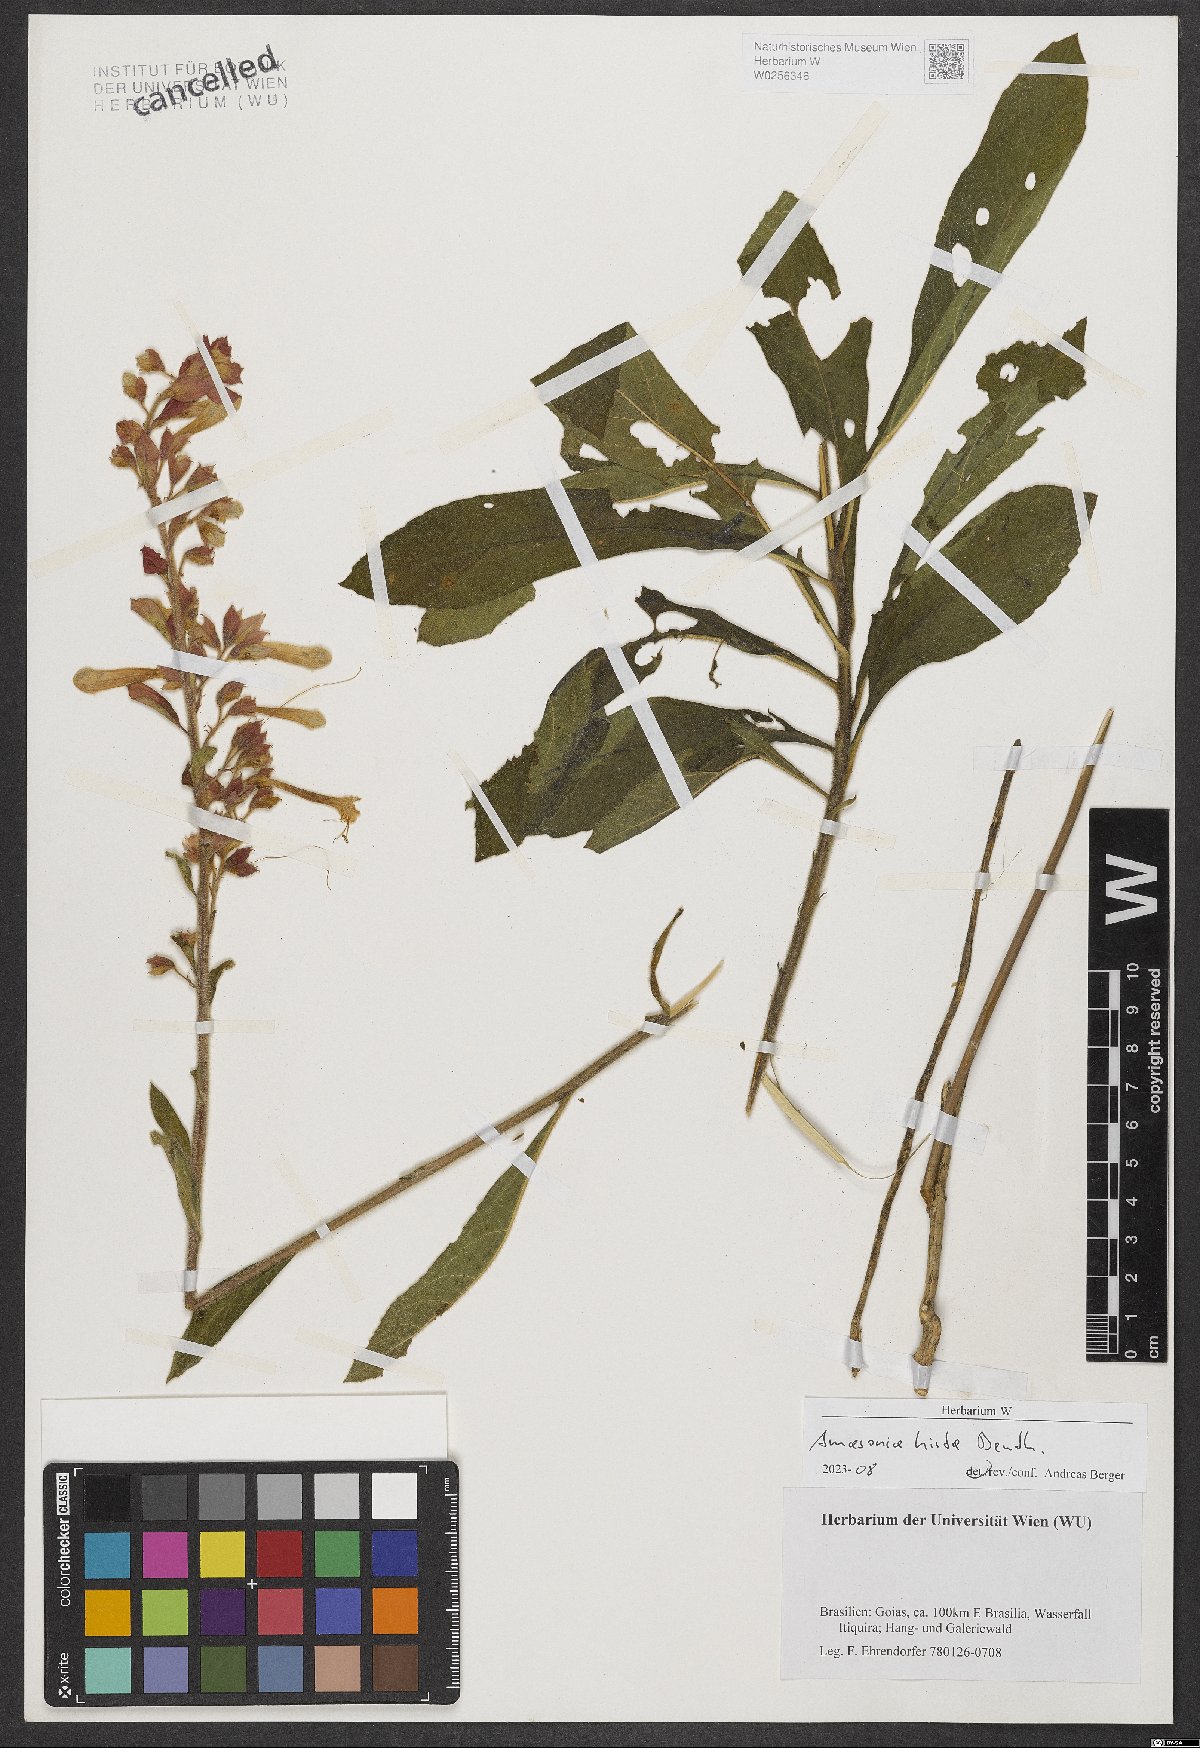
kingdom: Plantae
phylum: Tracheophyta
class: Magnoliopsida
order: Lamiales
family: Lamiaceae
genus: Amasonia
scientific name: Amasonia hirta
